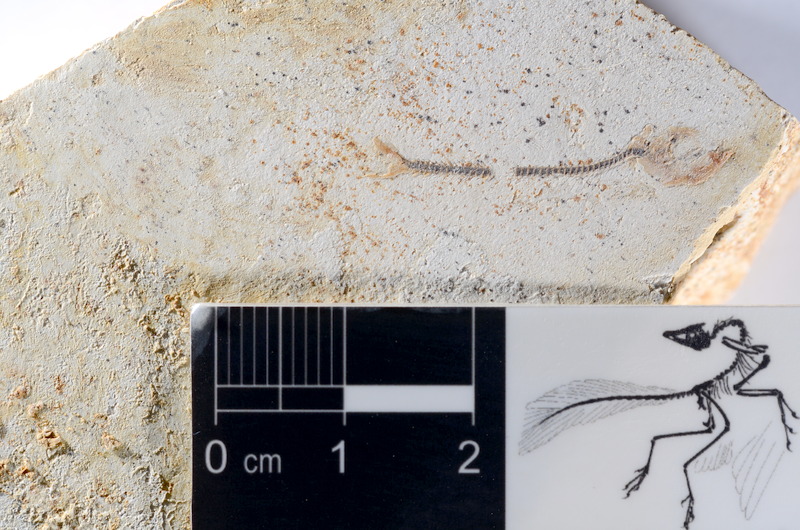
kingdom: Animalia
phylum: Chordata
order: Salmoniformes
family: Orthogonikleithridae
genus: Orthogonikleithrus
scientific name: Orthogonikleithrus hoelli
